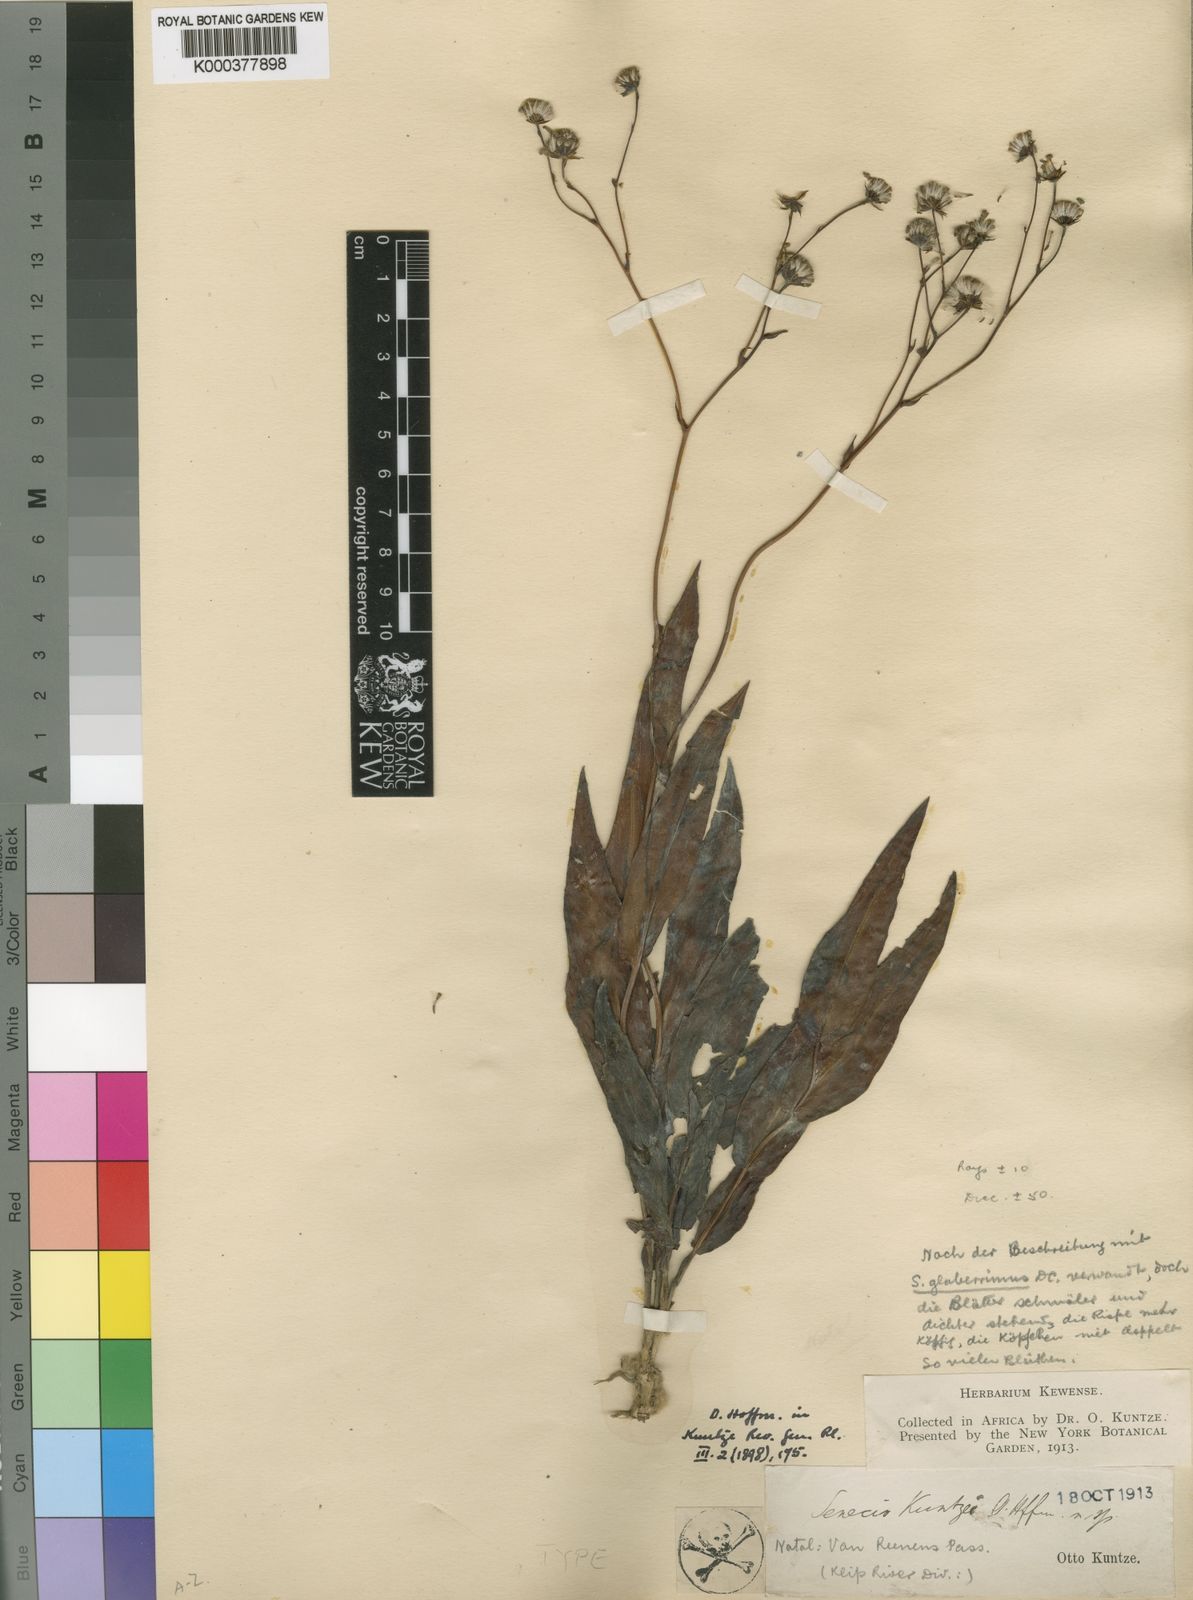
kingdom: Plantae
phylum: Tracheophyta
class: Magnoliopsida
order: Asterales
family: Asteraceae
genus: Senecio
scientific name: Senecio glaberrimus
